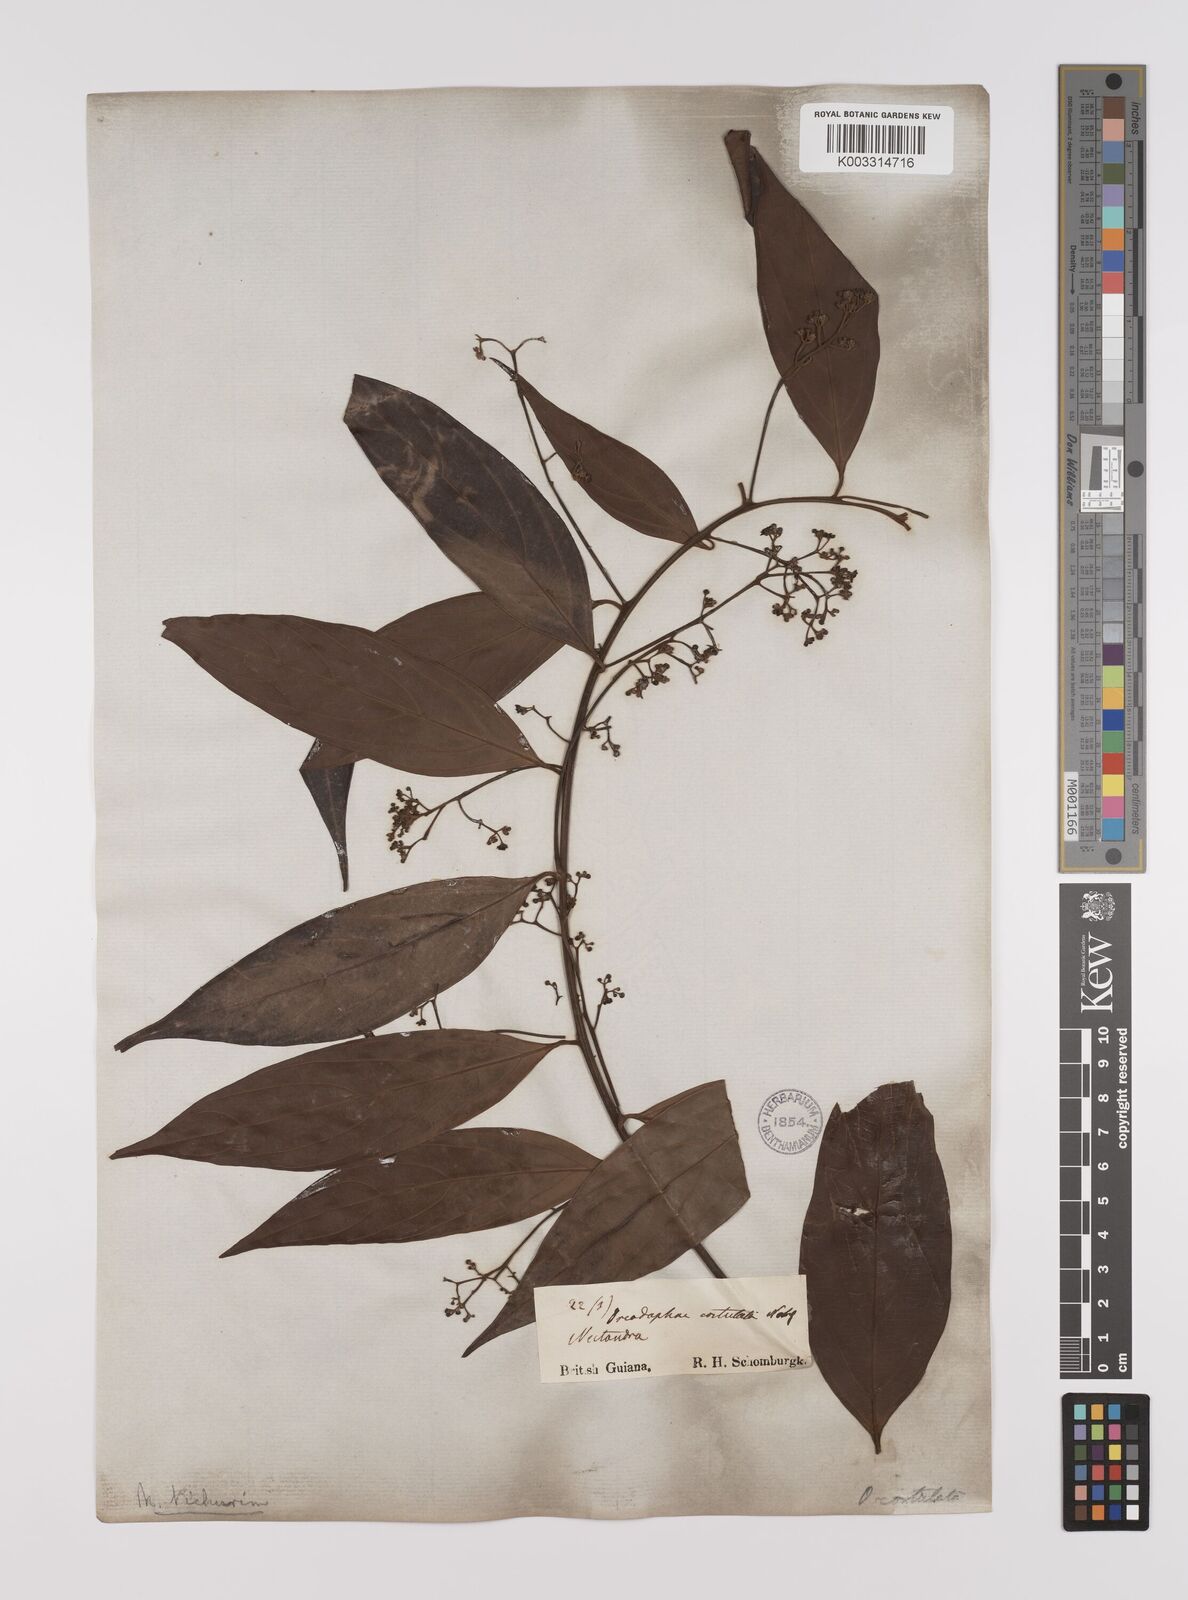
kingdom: Plantae
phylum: Tracheophyta
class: Magnoliopsida
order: Laurales
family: Lauraceae
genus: Nectandra
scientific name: Nectandra cuspidata
